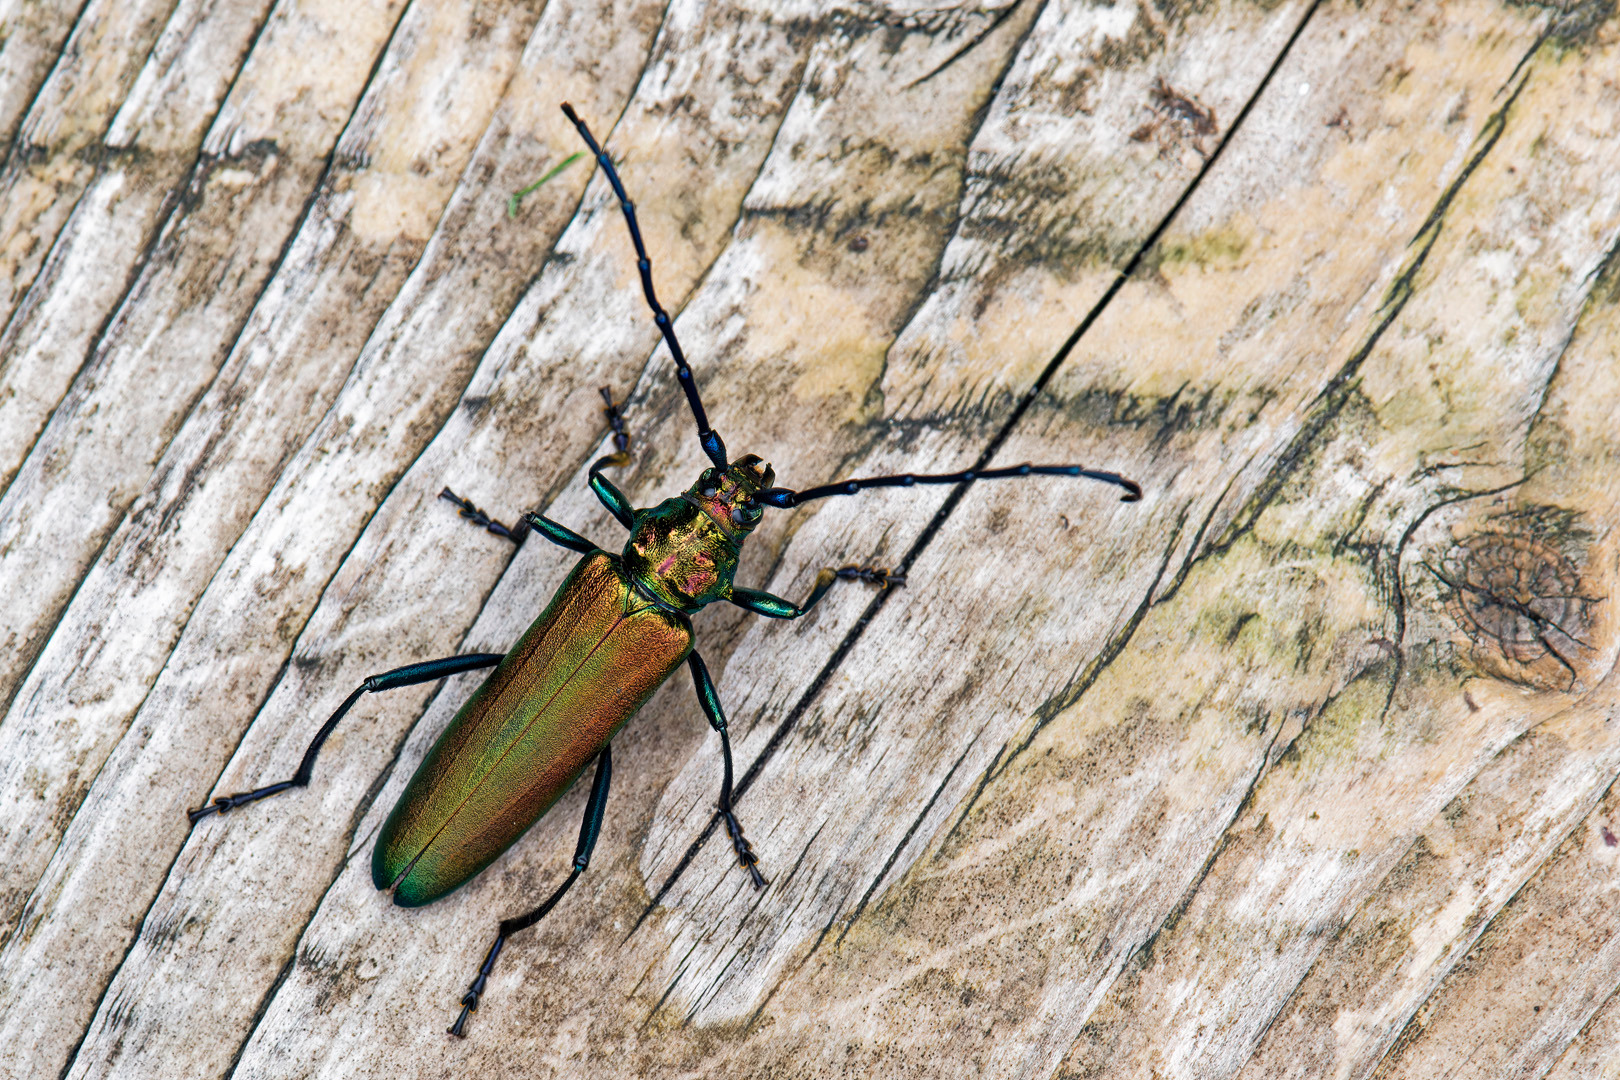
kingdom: Animalia
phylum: Arthropoda
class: Insecta
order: Coleoptera
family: Cerambycidae
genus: Aromia
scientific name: Aromia moschata
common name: Moskusbuk
